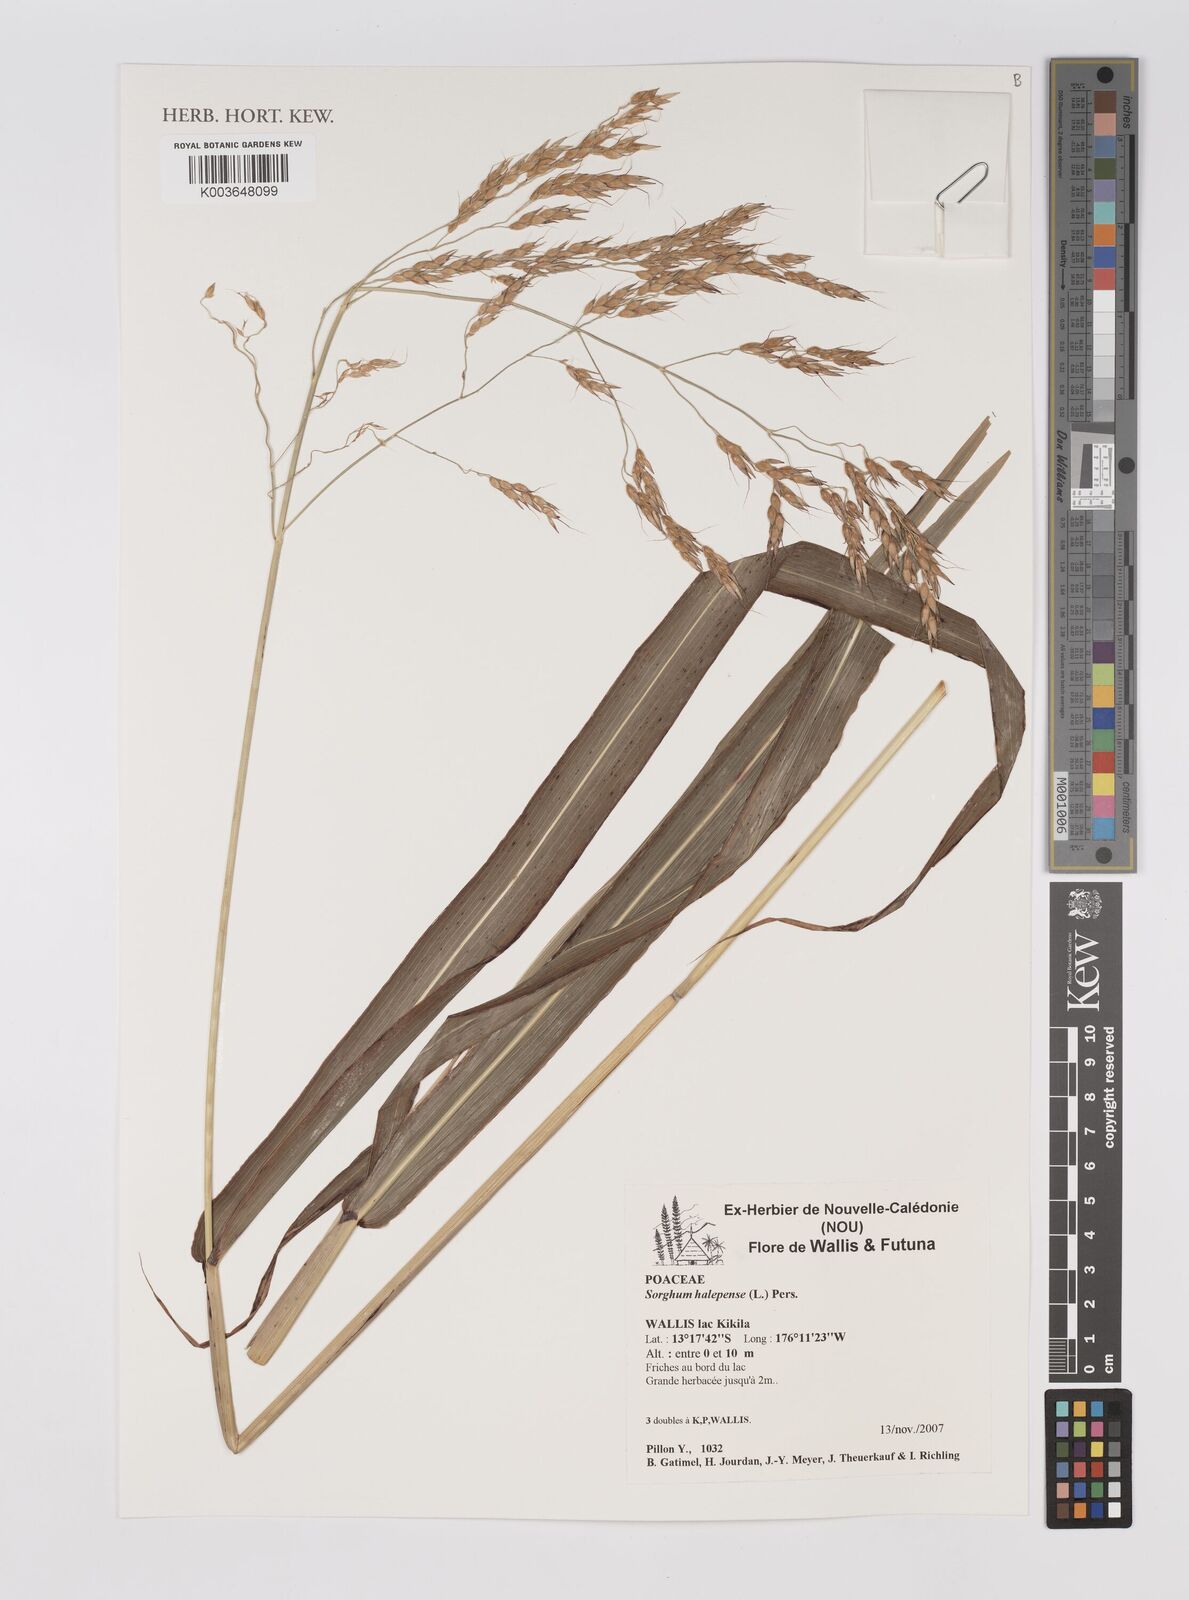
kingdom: Plantae
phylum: Tracheophyta
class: Liliopsida
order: Poales
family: Poaceae
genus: Sorghum
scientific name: Sorghum halepense
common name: Johnson-grass
